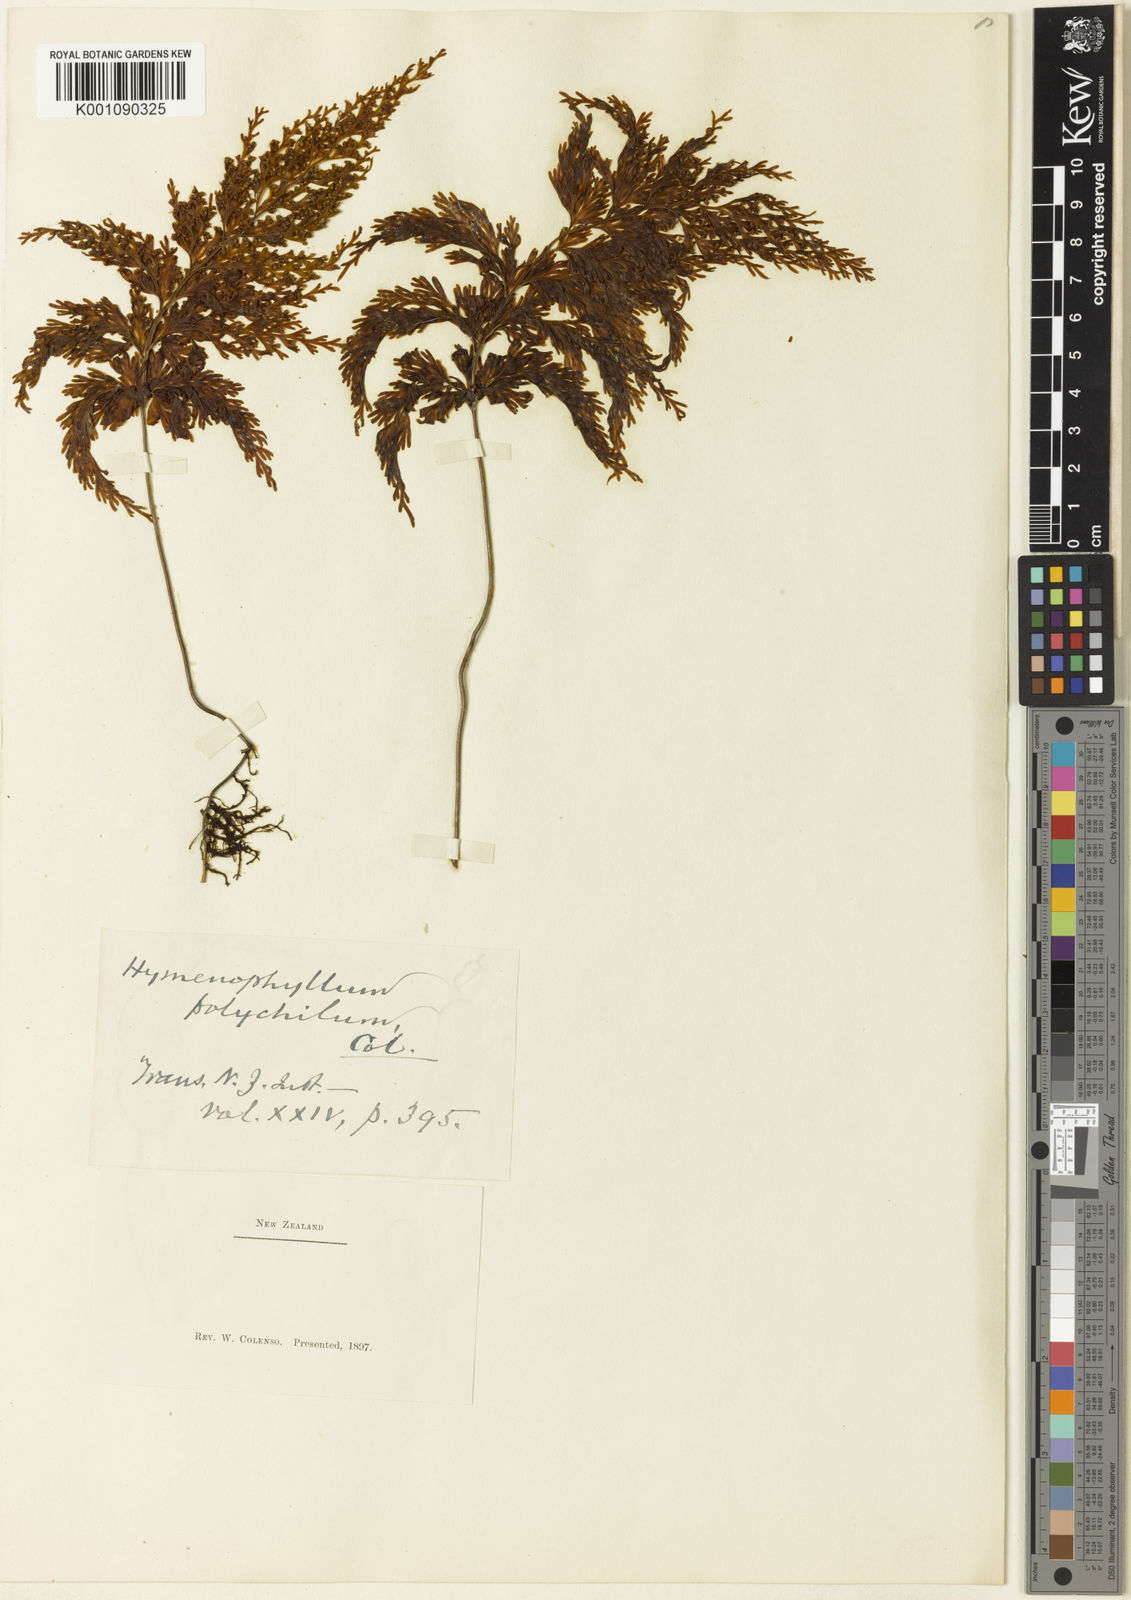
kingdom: Plantae
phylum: Tracheophyta
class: Polypodiopsida
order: Hymenophyllales
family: Hymenophyllaceae
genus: Hymenophyllum
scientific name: Hymenophyllum demissum
